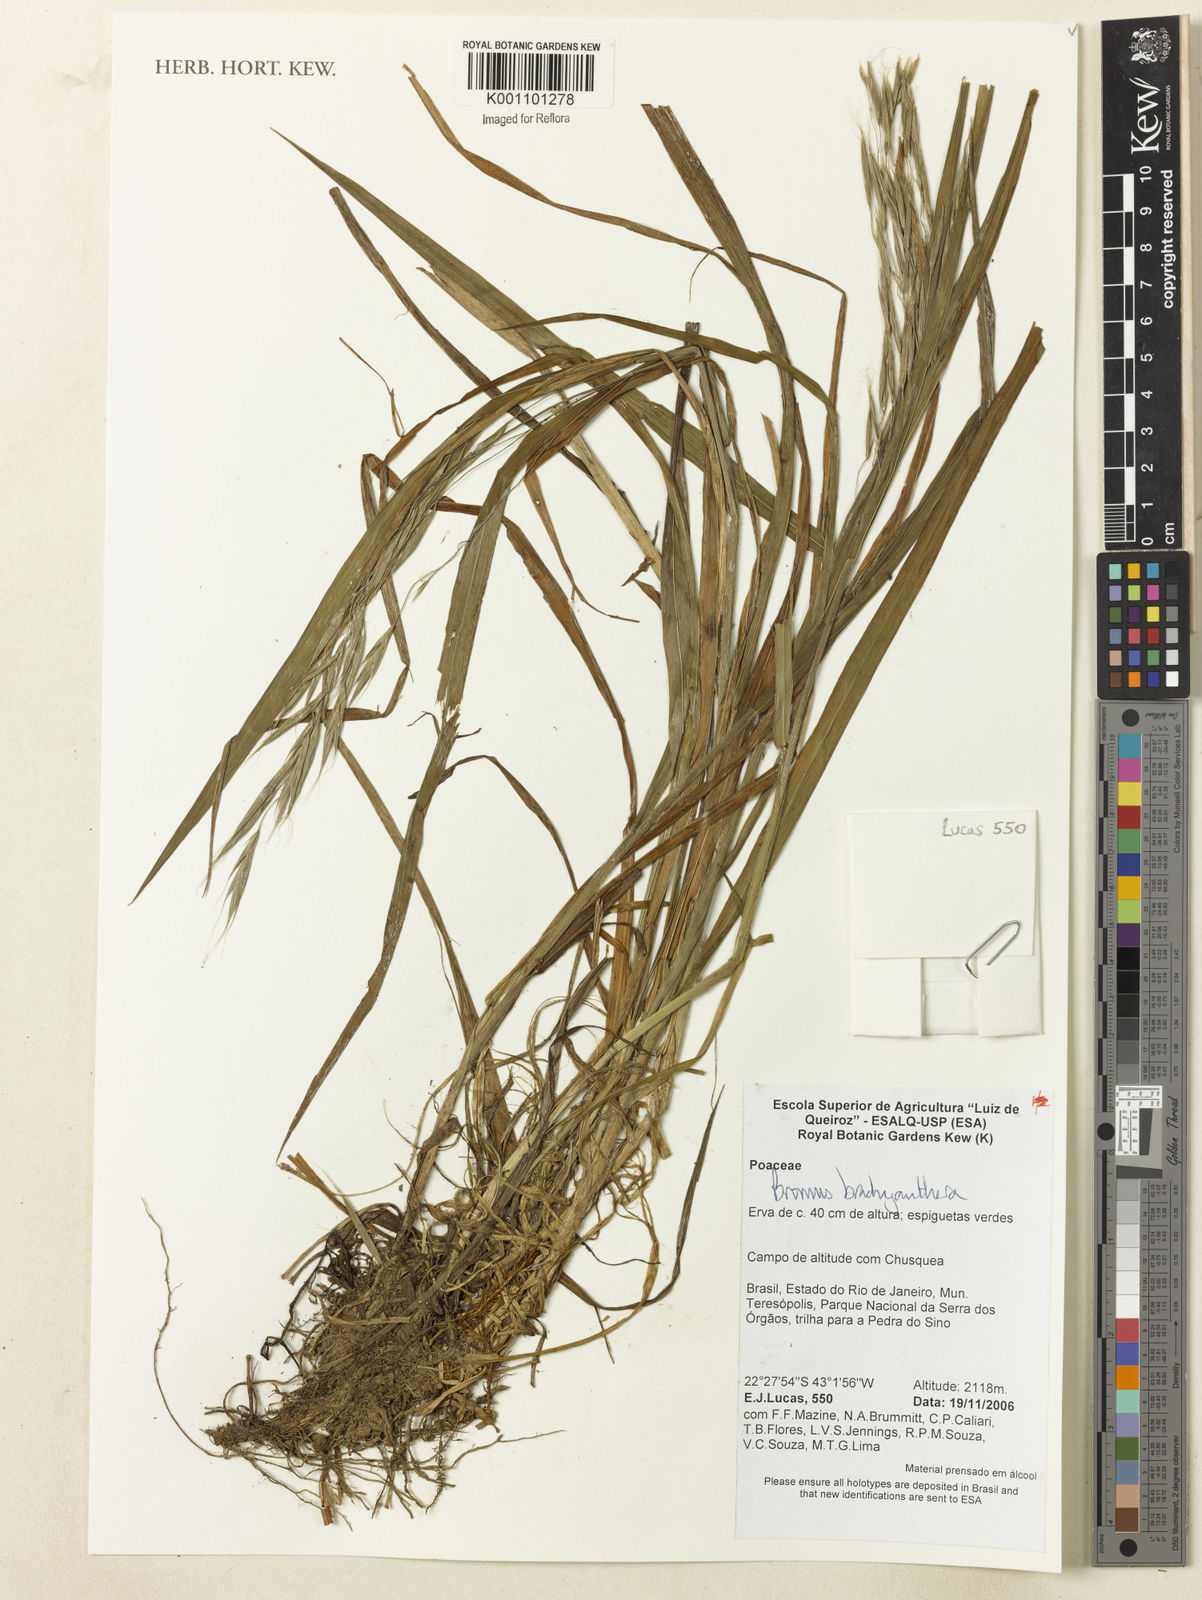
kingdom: Plantae
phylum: Tracheophyta
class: Liliopsida
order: Poales
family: Poaceae
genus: Bromus
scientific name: Bromus
